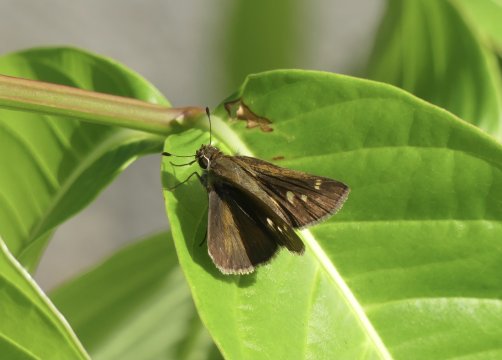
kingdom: Animalia
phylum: Arthropoda
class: Insecta
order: Lepidoptera
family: Hesperiidae
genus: Lerema
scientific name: Lerema accius
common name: Clouded Skipper
